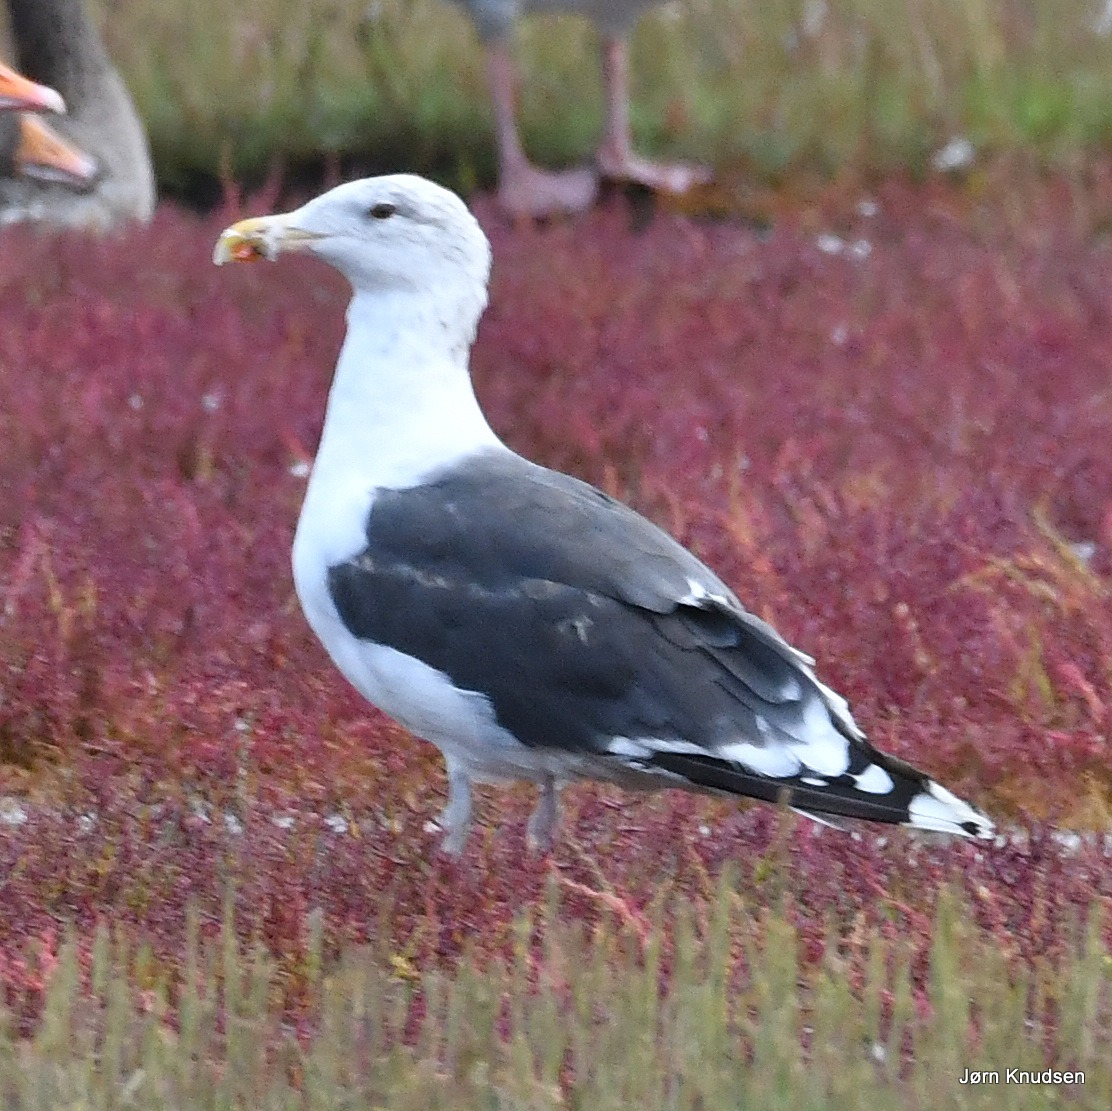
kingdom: Animalia
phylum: Chordata
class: Aves
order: Charadriiformes
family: Laridae
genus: Larus
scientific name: Larus marinus
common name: Svartbag
